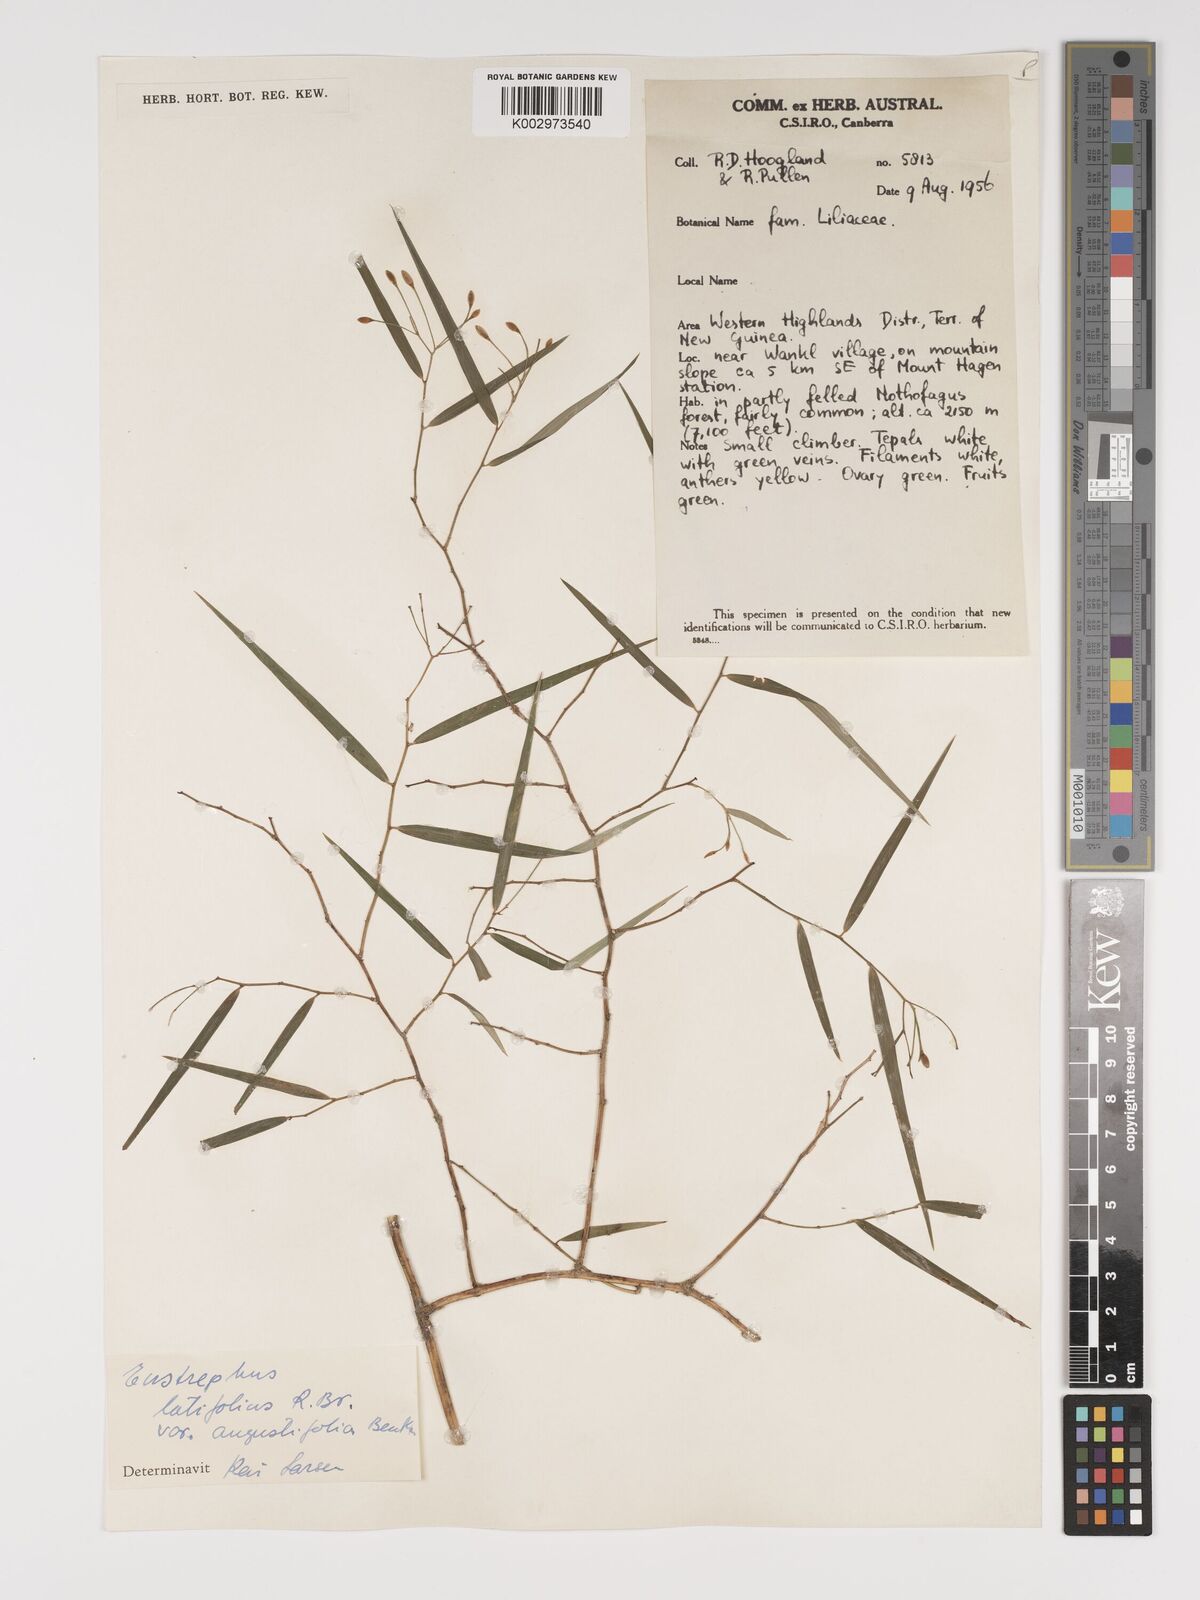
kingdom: Plantae
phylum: Tracheophyta
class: Liliopsida
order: Asparagales
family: Asparagaceae
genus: Eustrephus
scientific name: Eustrephus latifolius
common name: Orangevine
